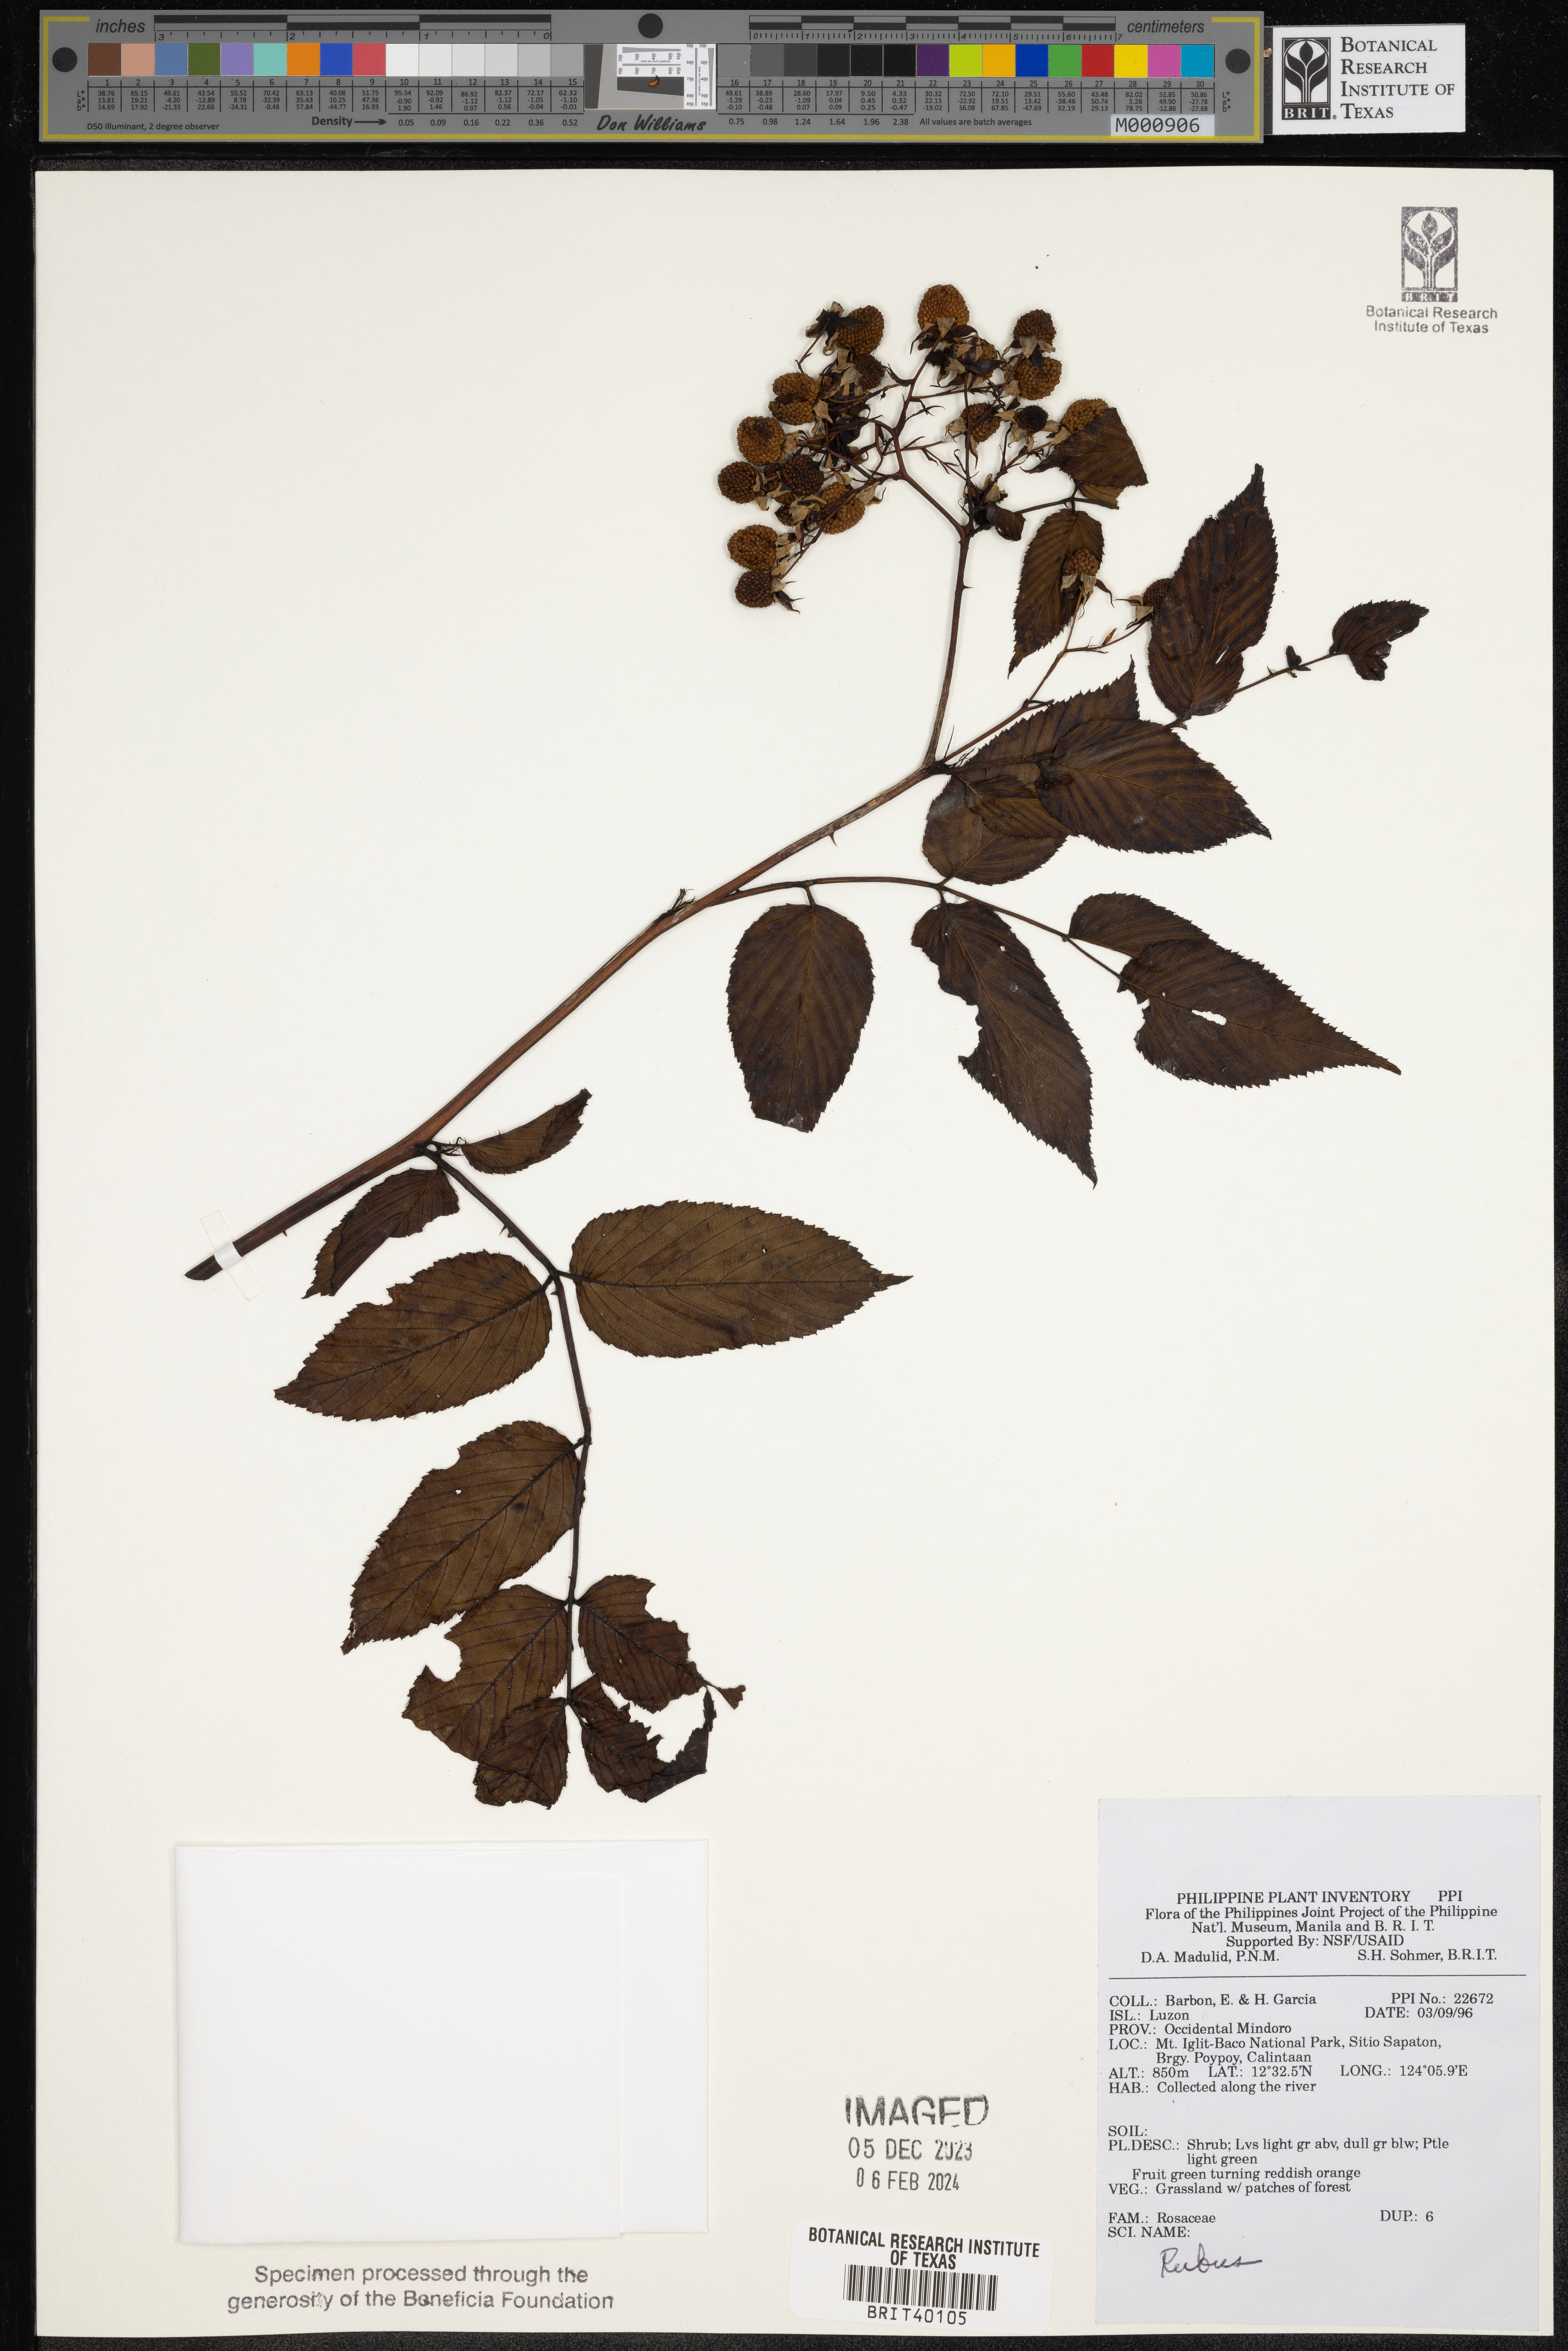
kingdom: Plantae
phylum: Tracheophyta
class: Magnoliopsida
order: Rosales
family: Rosaceae
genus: Rubus
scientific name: Rubus
